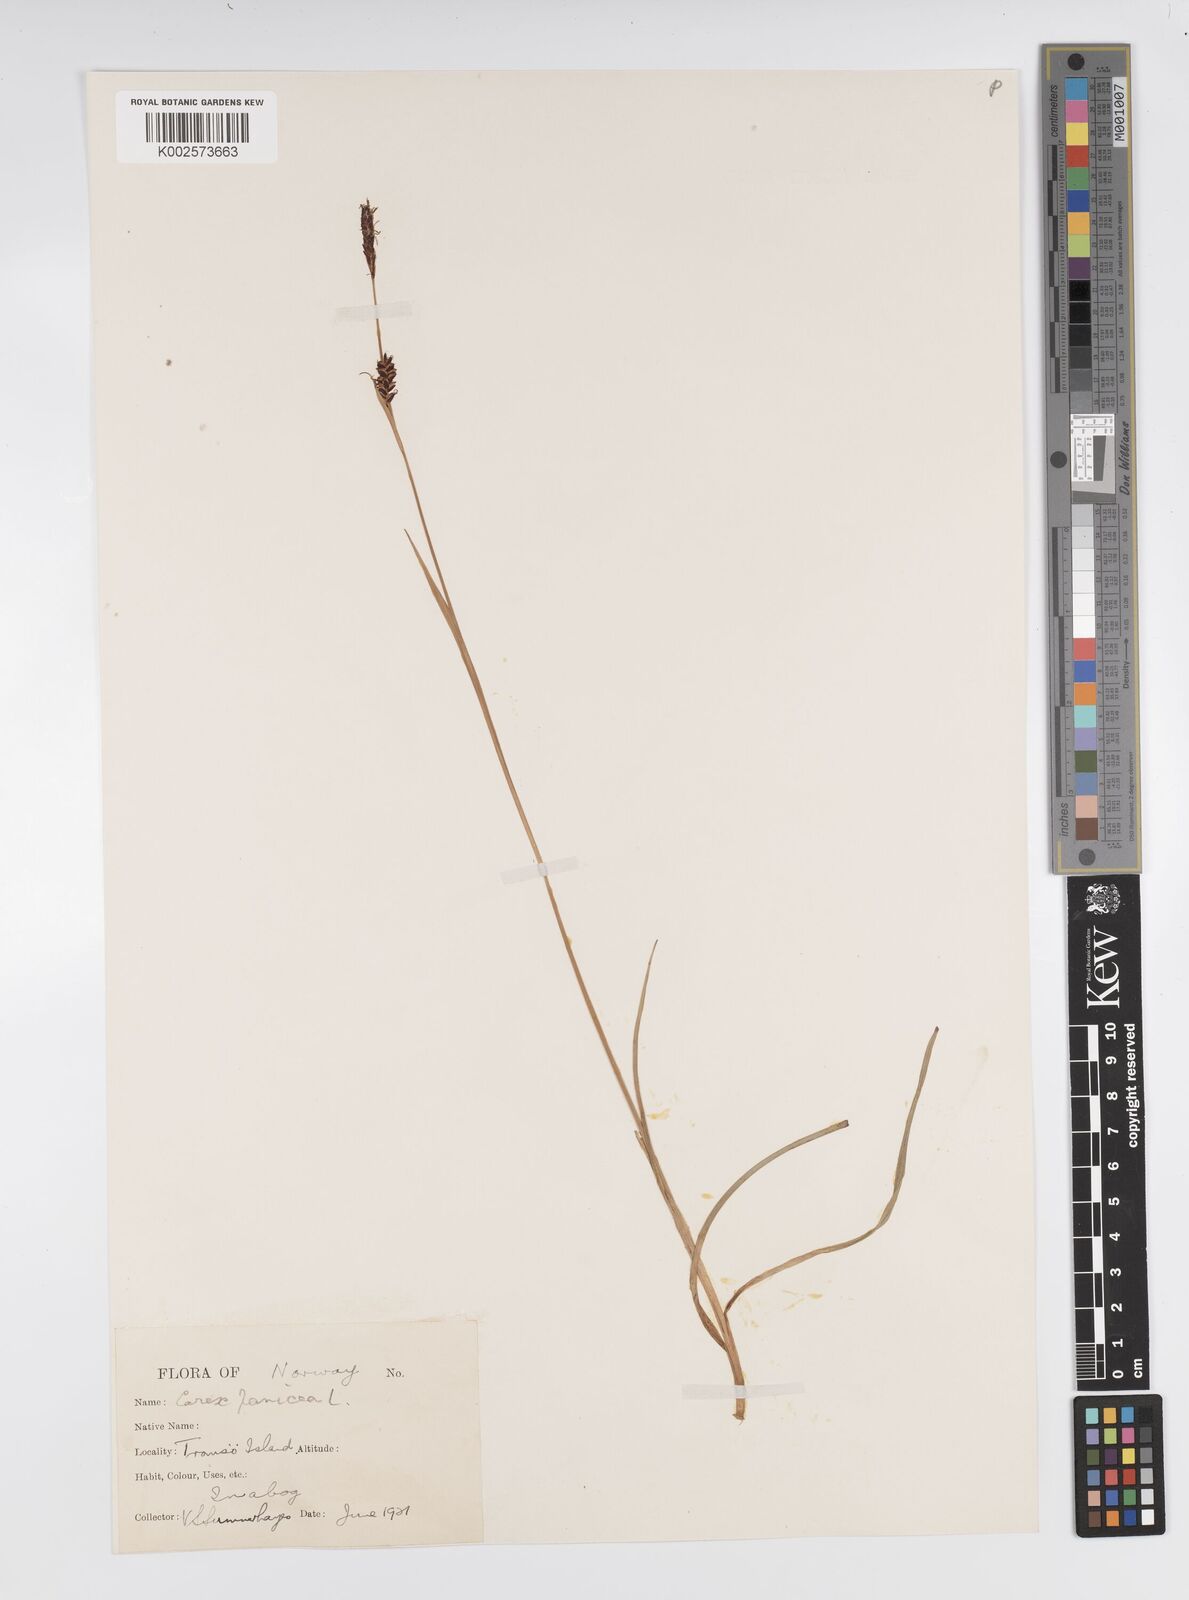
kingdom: Plantae
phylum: Tracheophyta
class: Liliopsida
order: Poales
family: Cyperaceae
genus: Carex
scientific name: Carex panicea
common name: Carnation sedge
